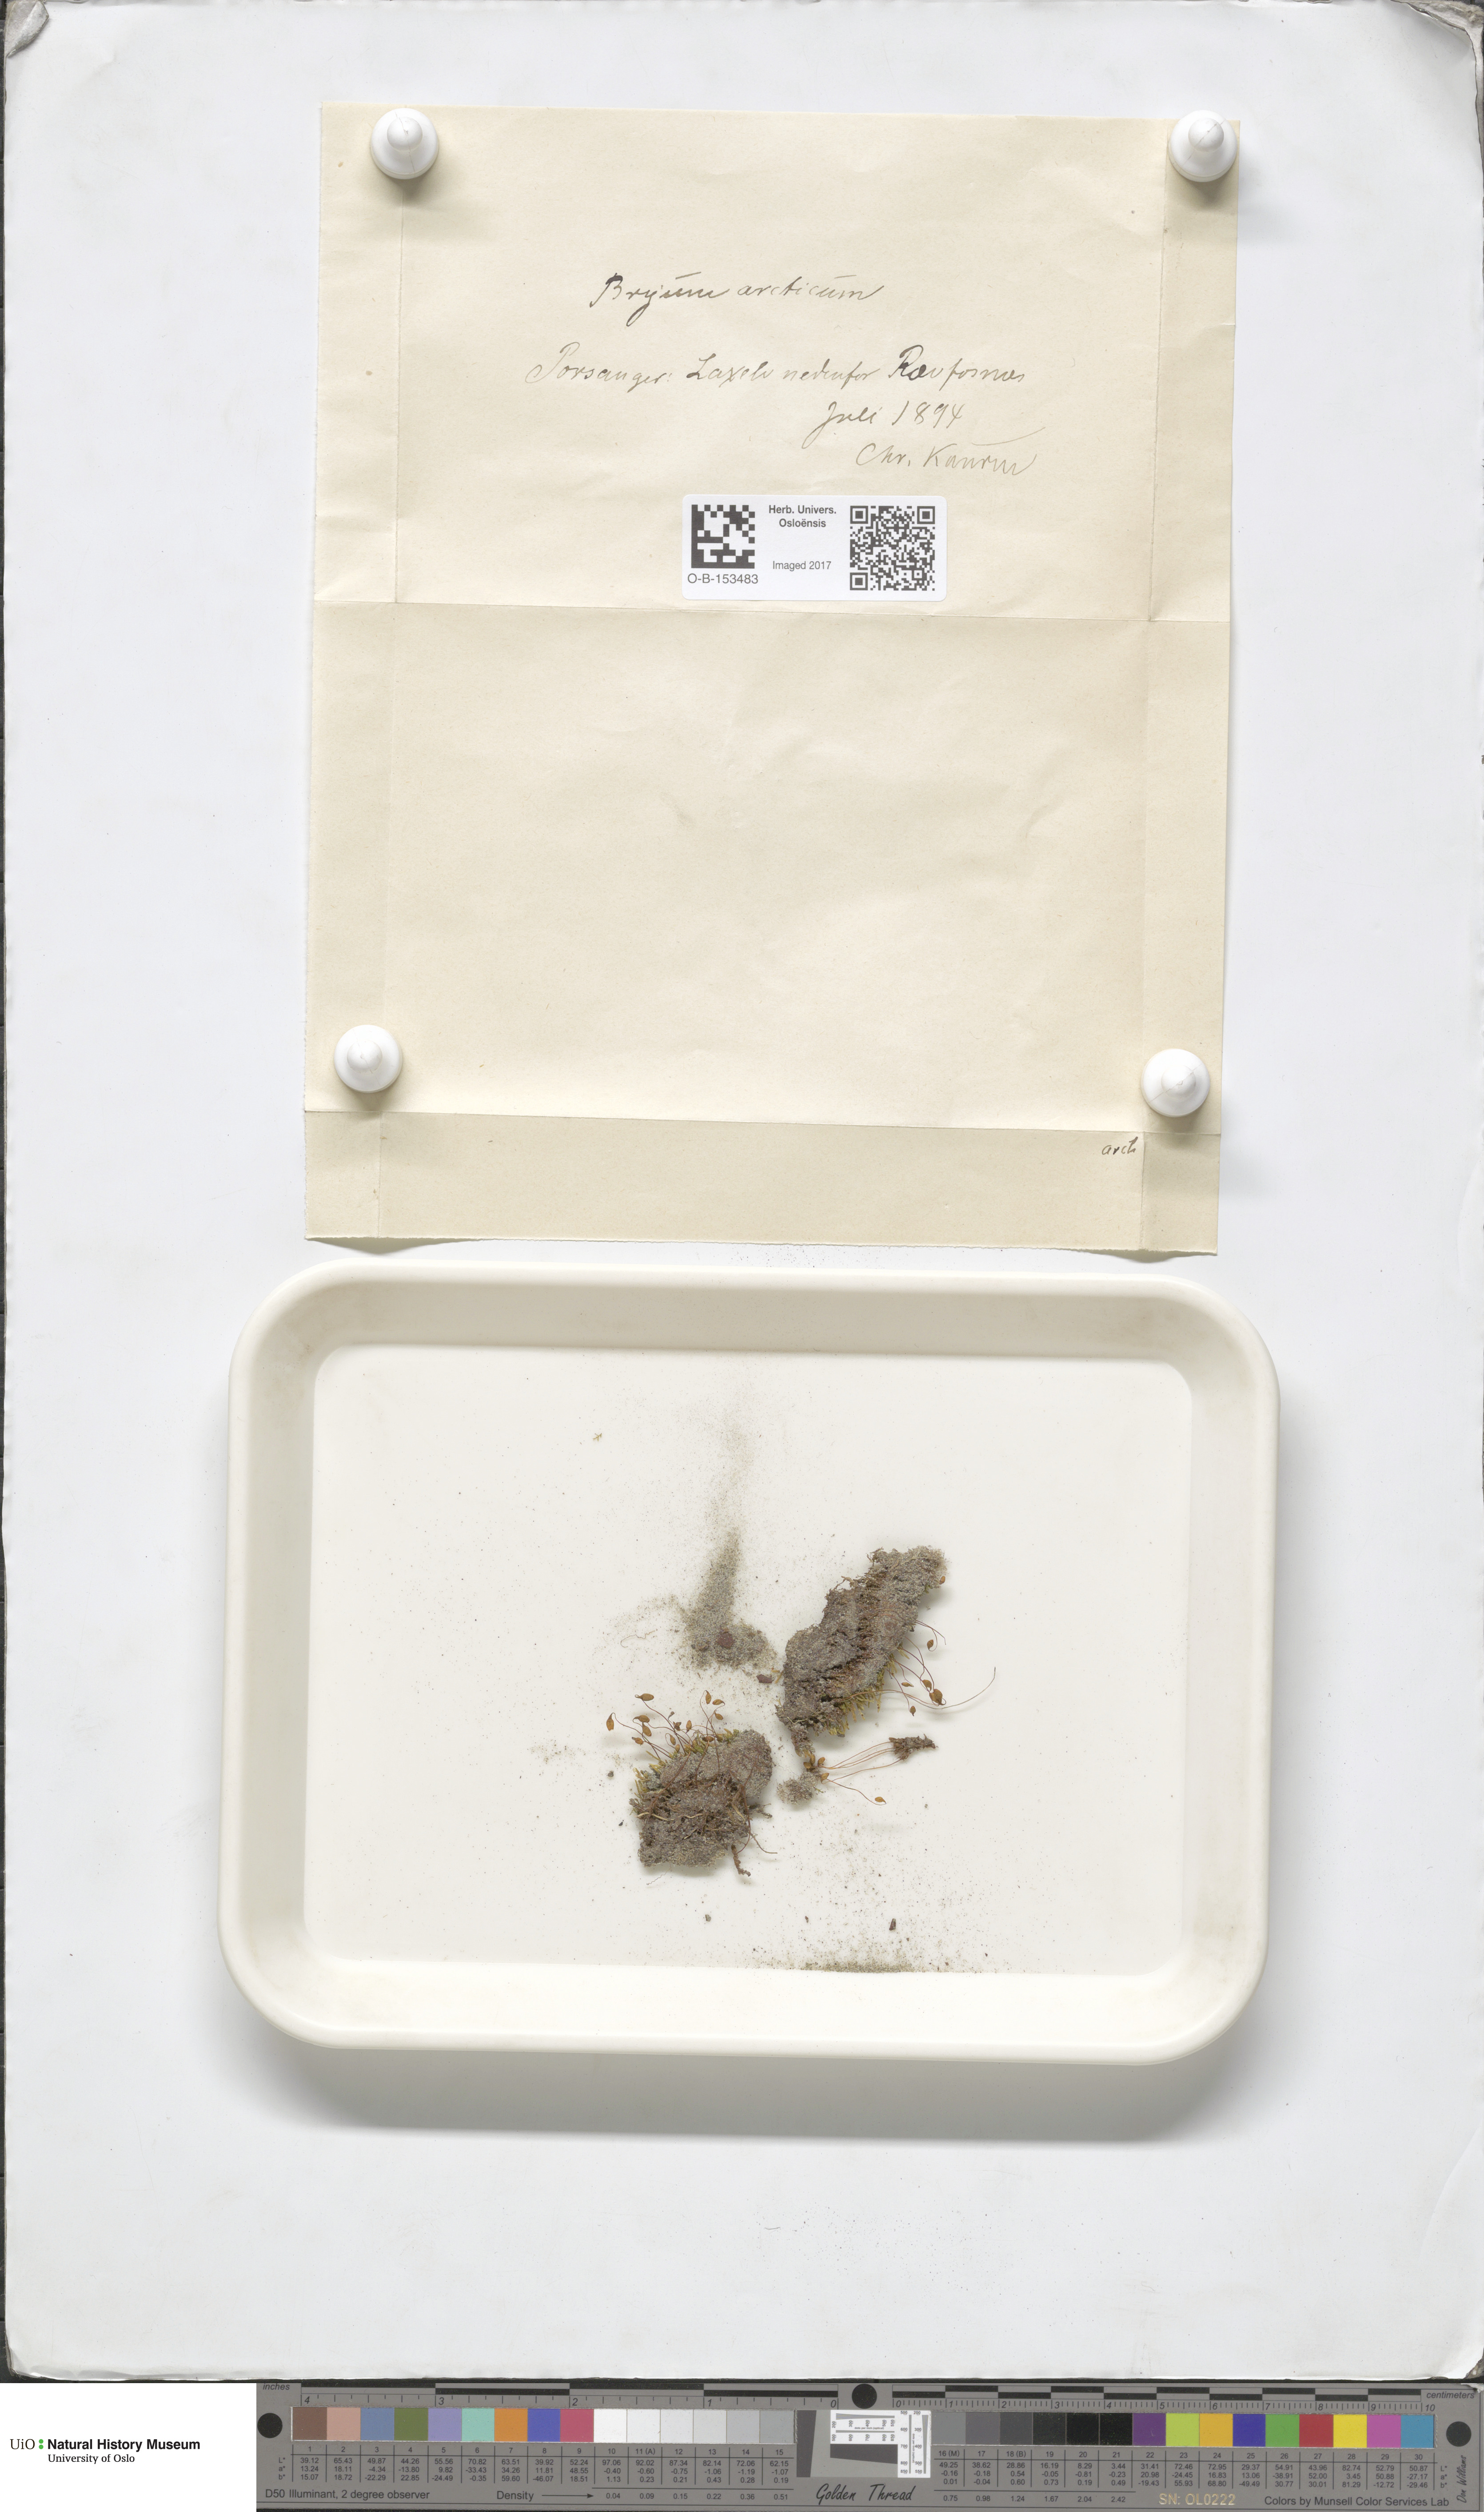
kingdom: Plantae
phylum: Bryophyta
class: Bryopsida
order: Bryales
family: Bryaceae
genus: Ptychostomum
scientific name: Ptychostomum arcticum
